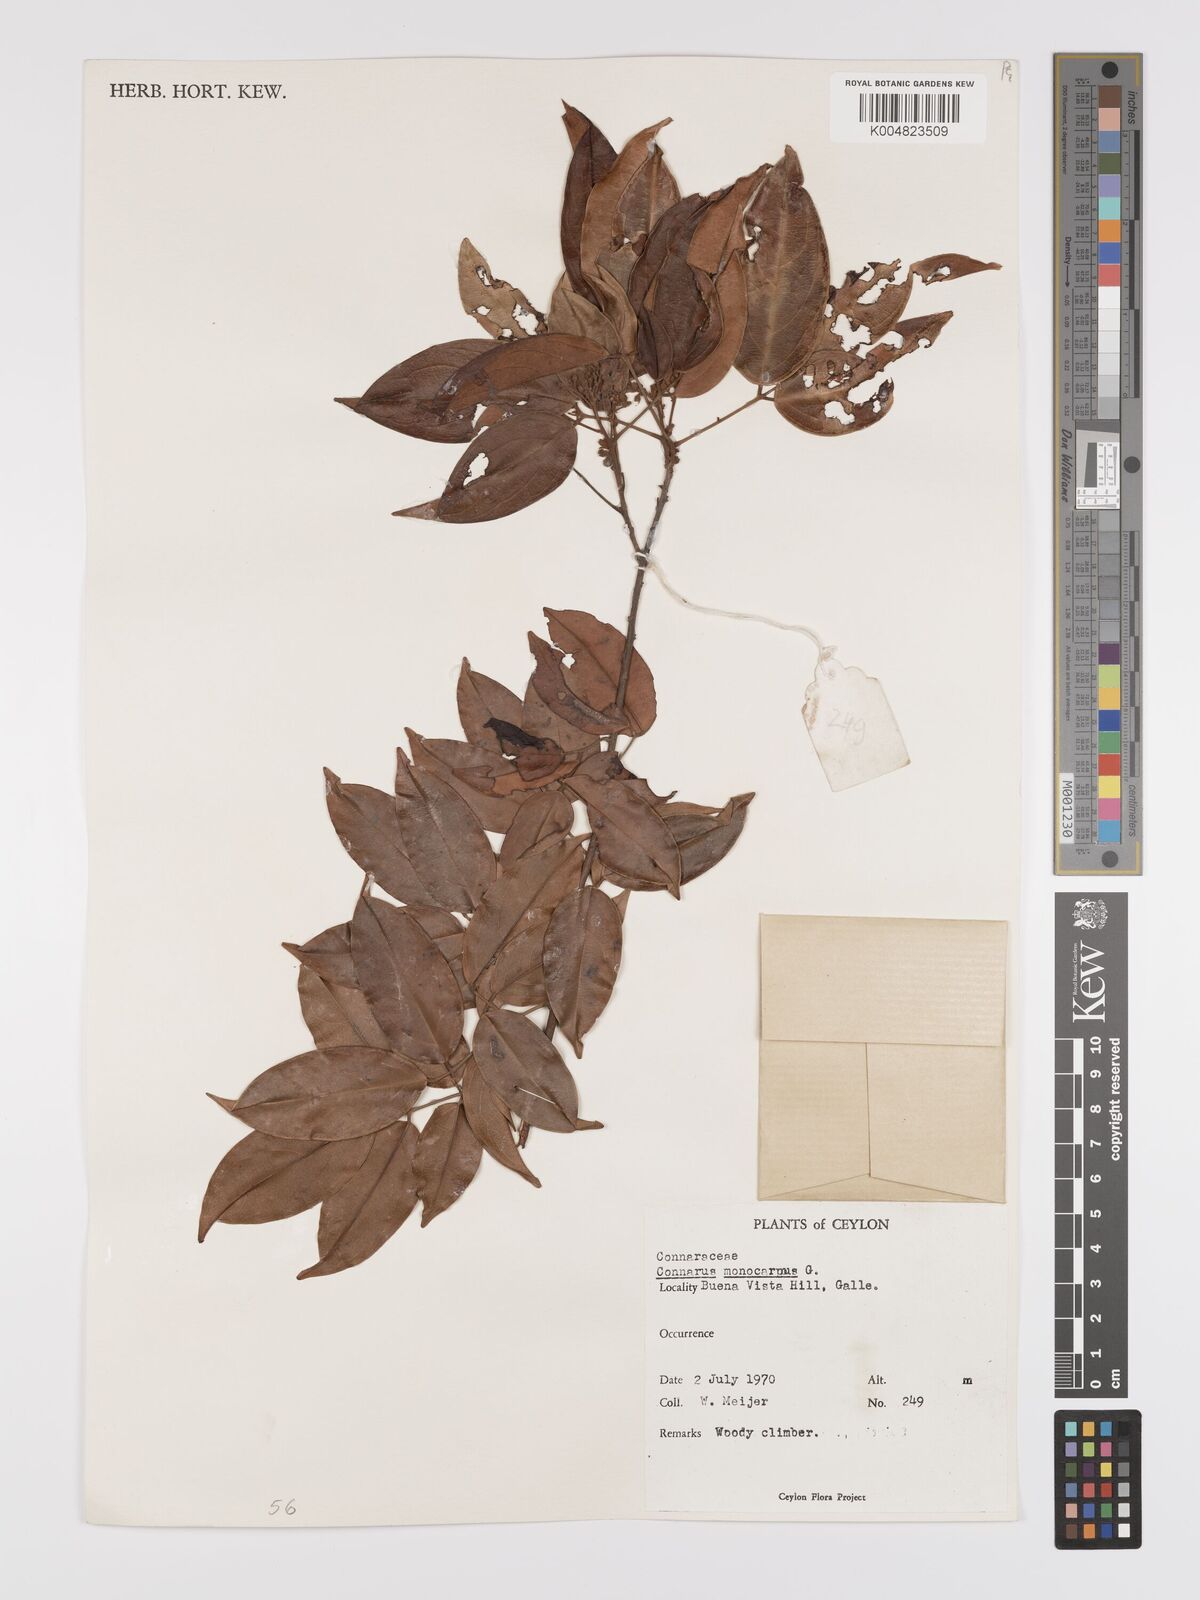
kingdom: Plantae
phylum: Tracheophyta
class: Magnoliopsida
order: Oxalidales
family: Connaraceae
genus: Connarus
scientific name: Connarus semidecandrus
